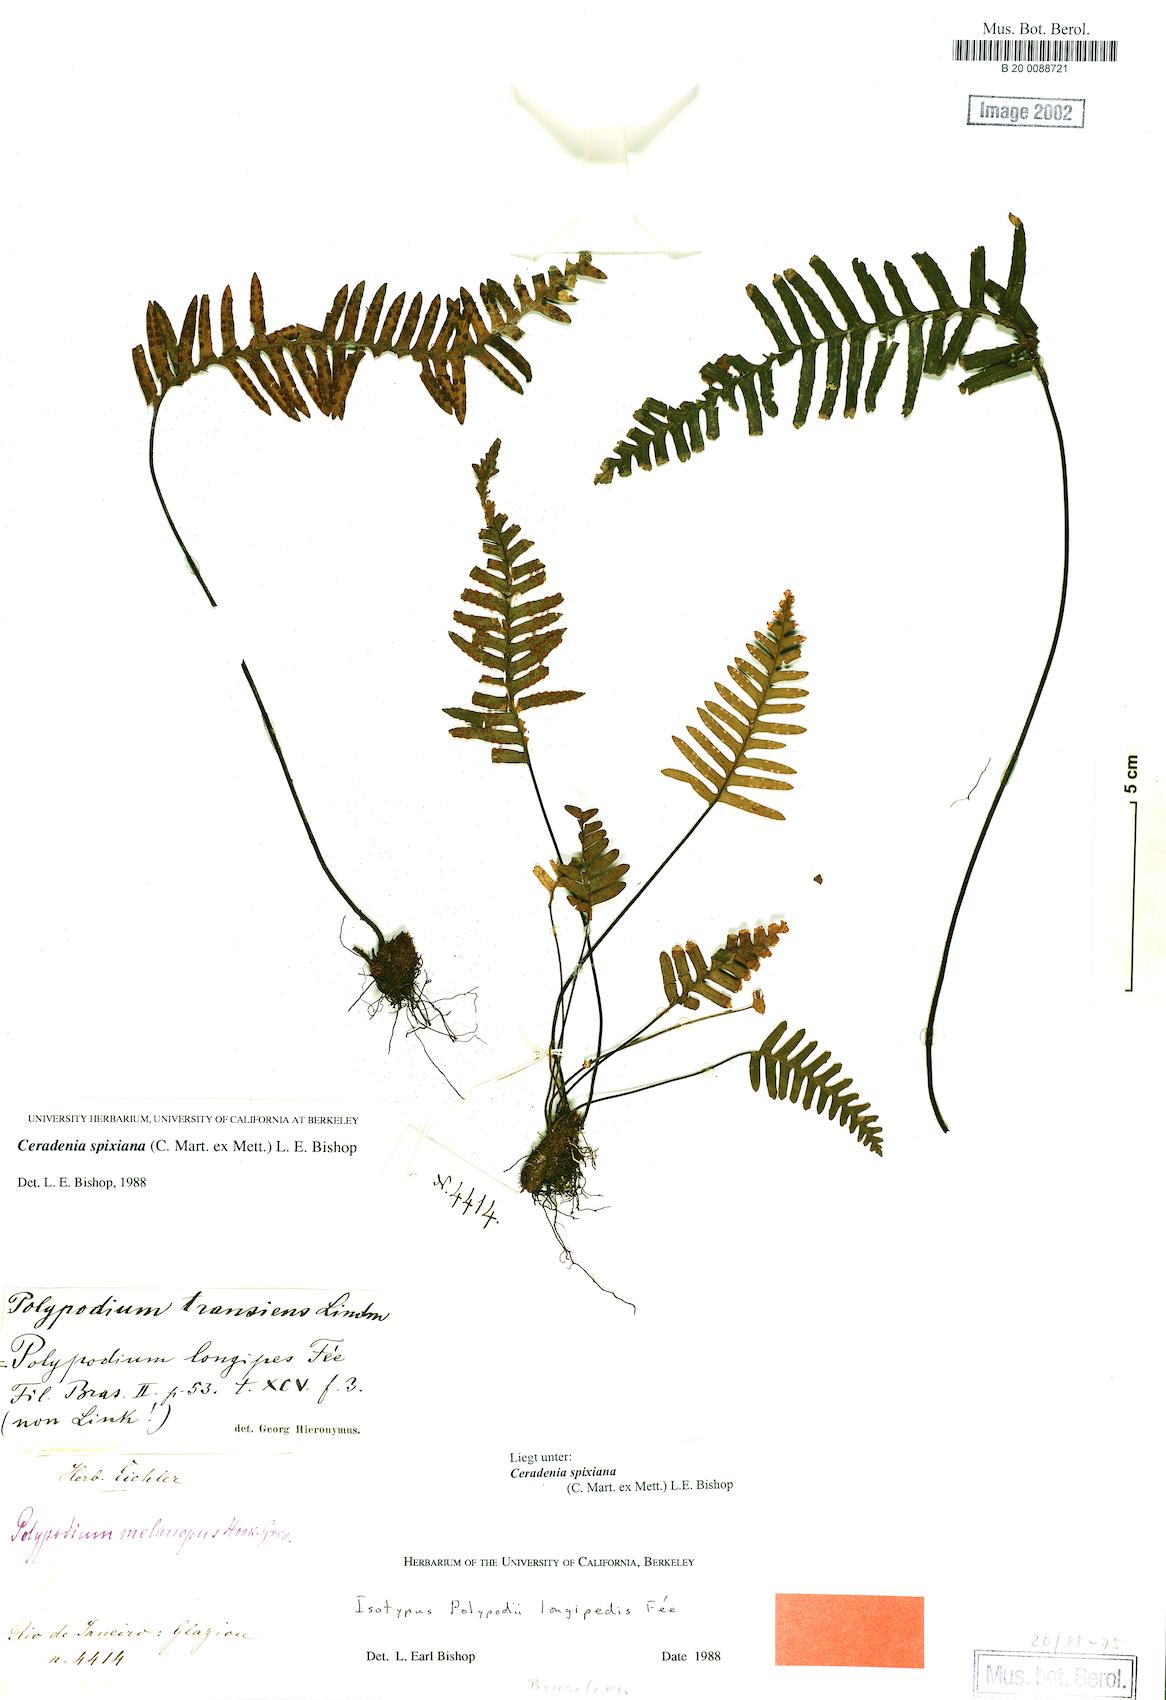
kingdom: Plantae
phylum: Tracheophyta
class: Polypodiopsida
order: Polypodiales
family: Polypodiaceae
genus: Ceradenia
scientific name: Ceradenia spixiana
